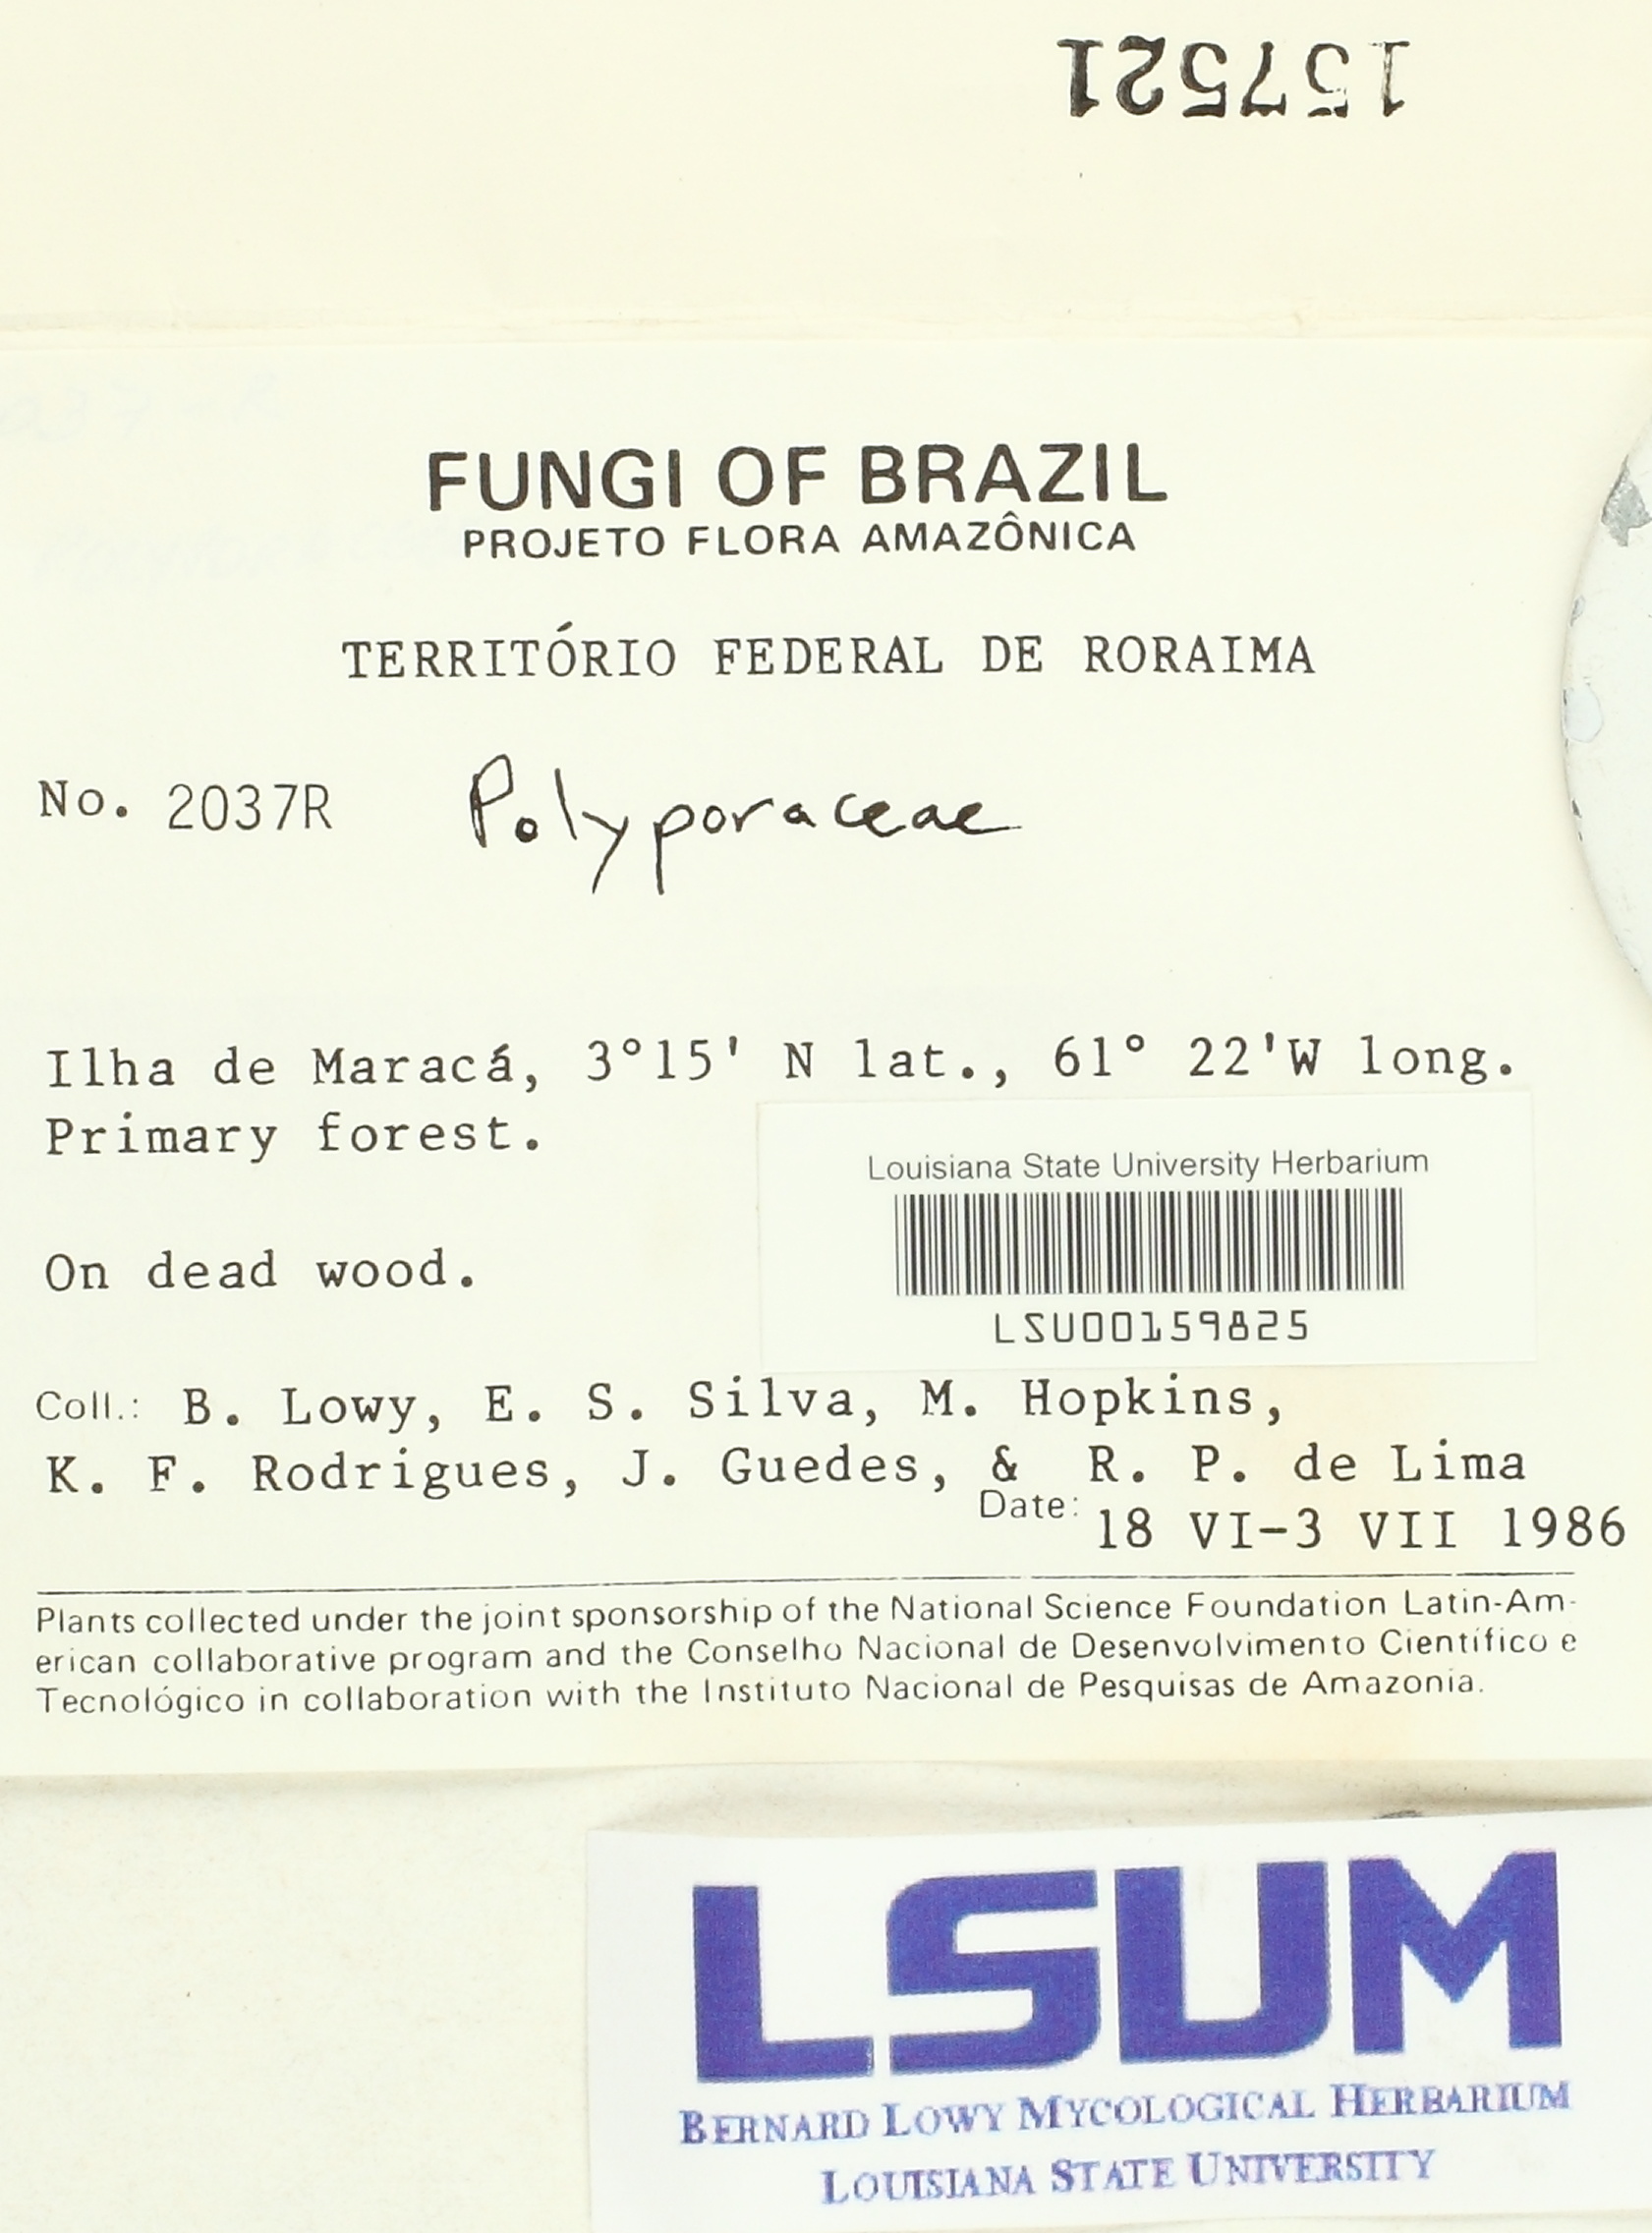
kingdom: Fungi
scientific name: Fungi
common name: Fungi
